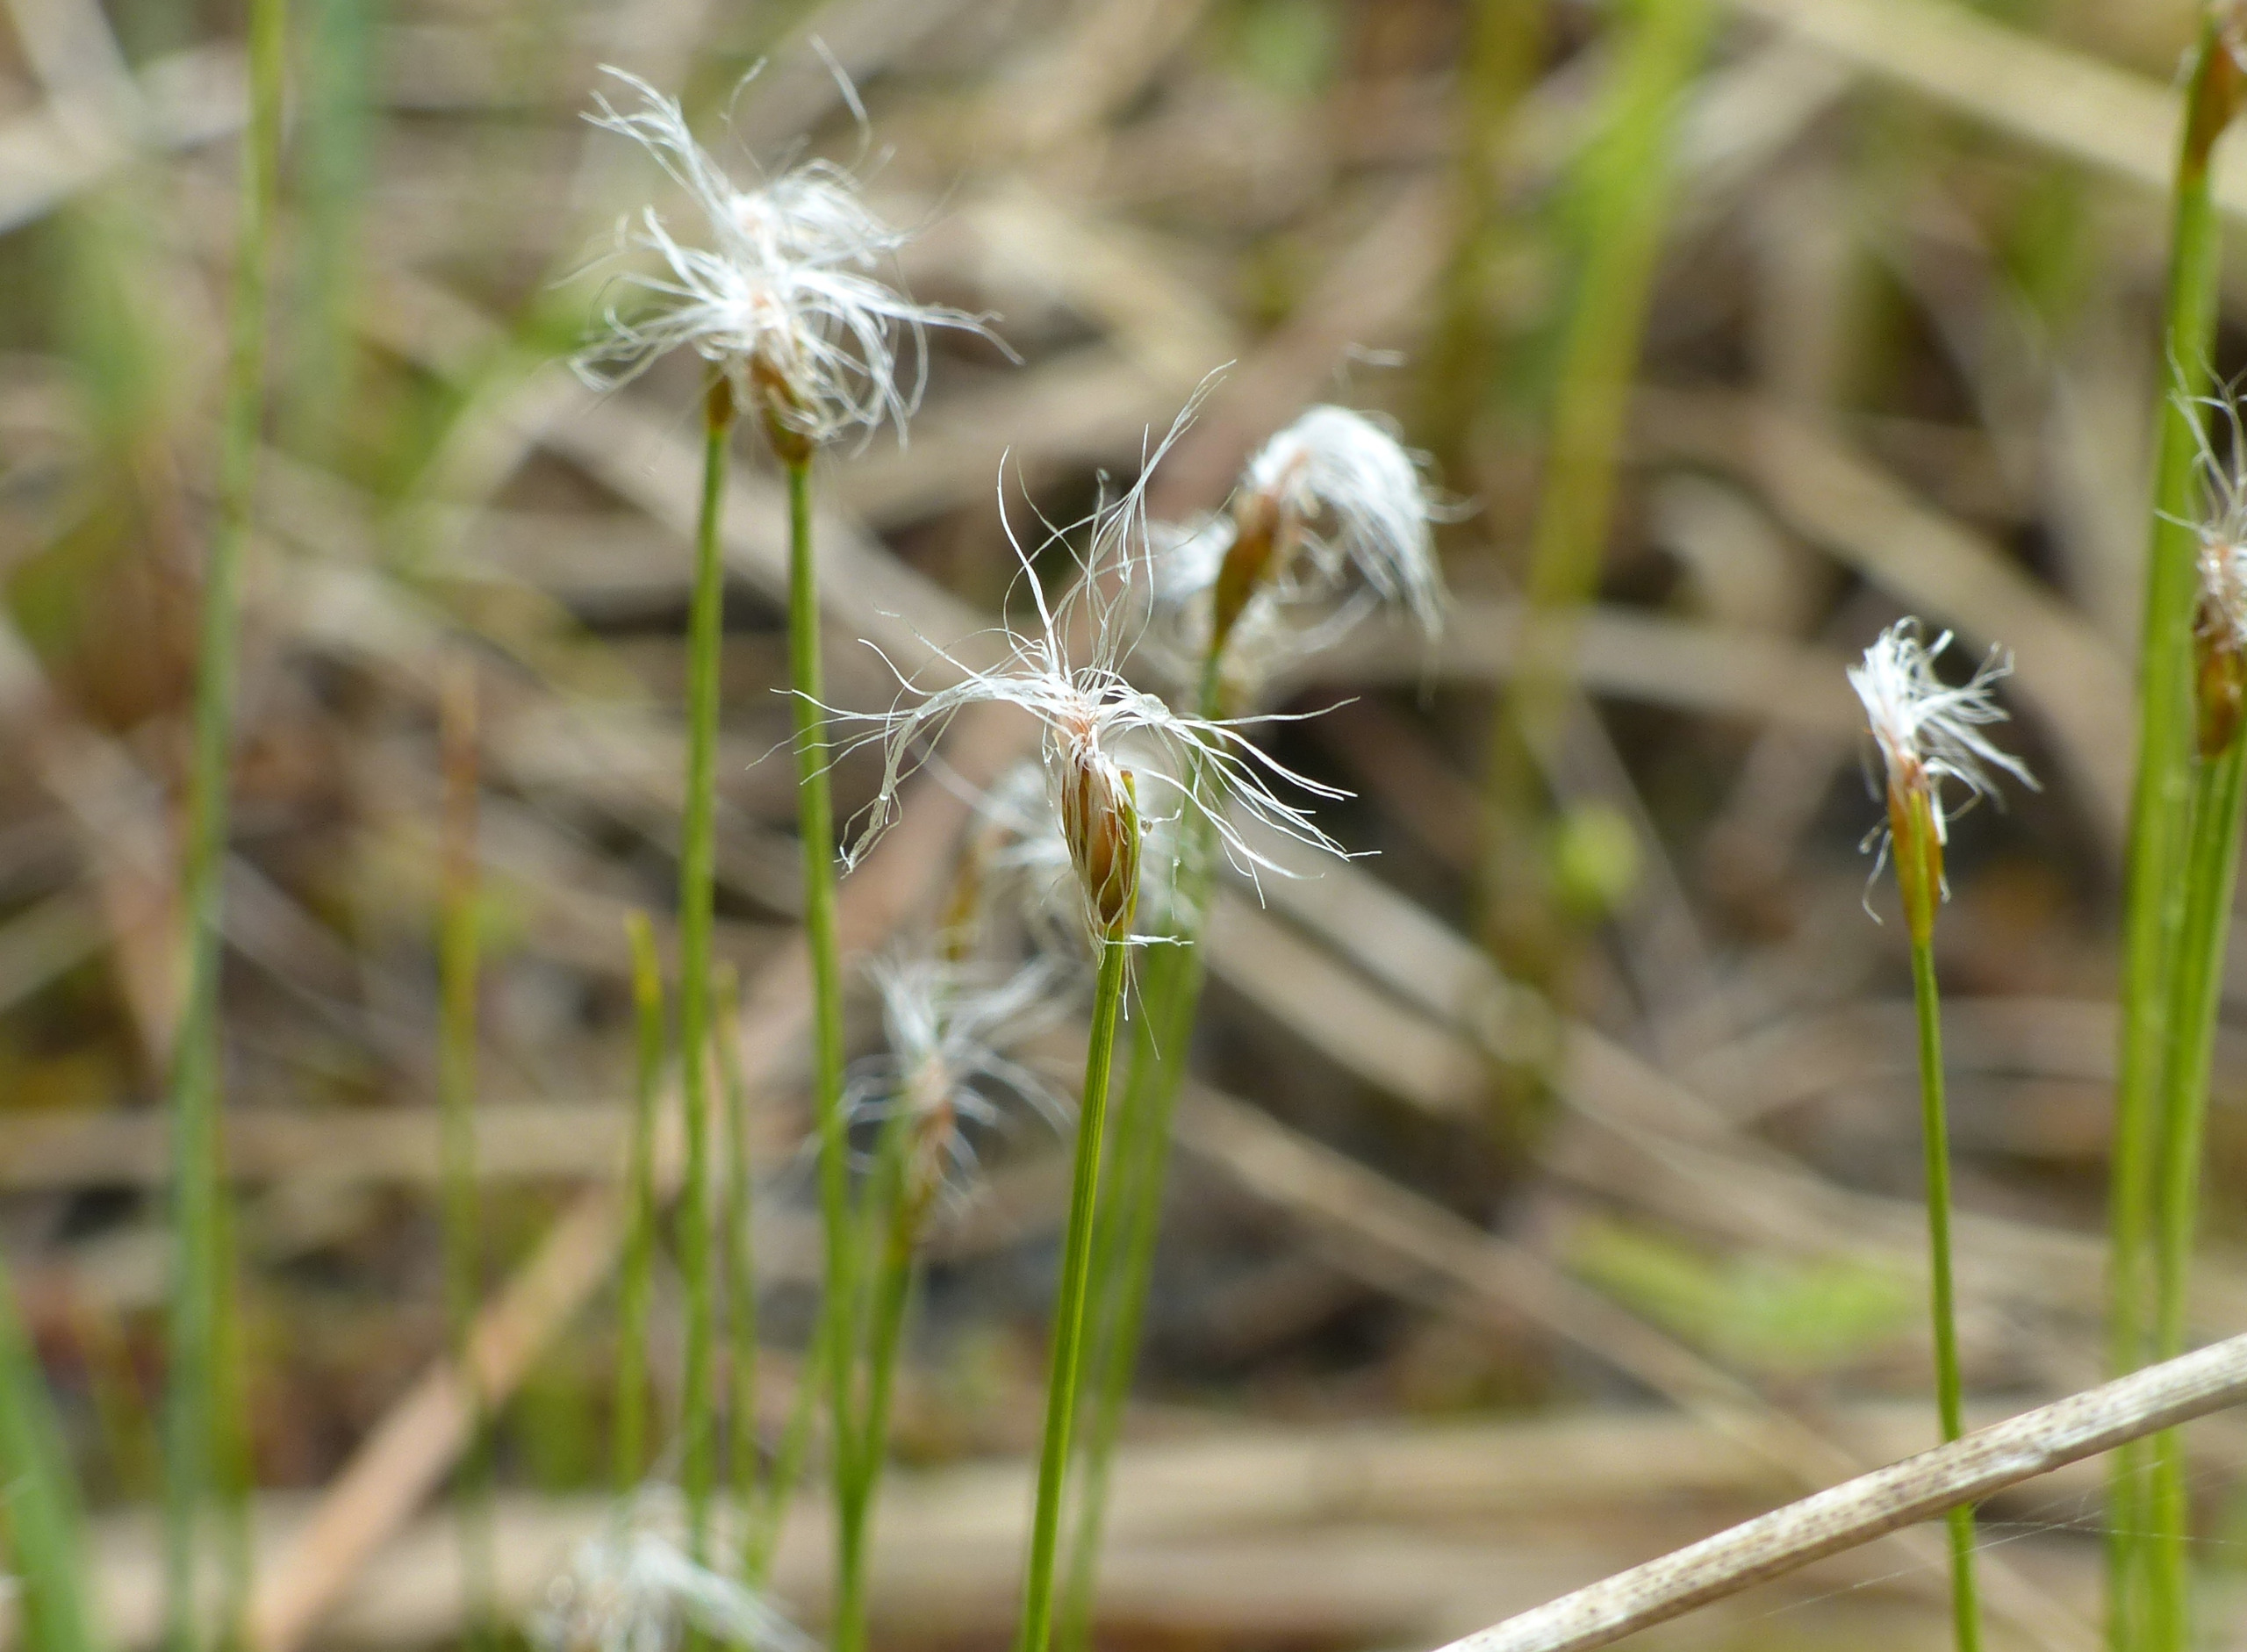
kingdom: Plantae
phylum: Tracheophyta
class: Liliopsida
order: Poales
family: Cyperaceae
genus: Trichophorum
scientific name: Trichophorum alpinum
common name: Liden kæruld
